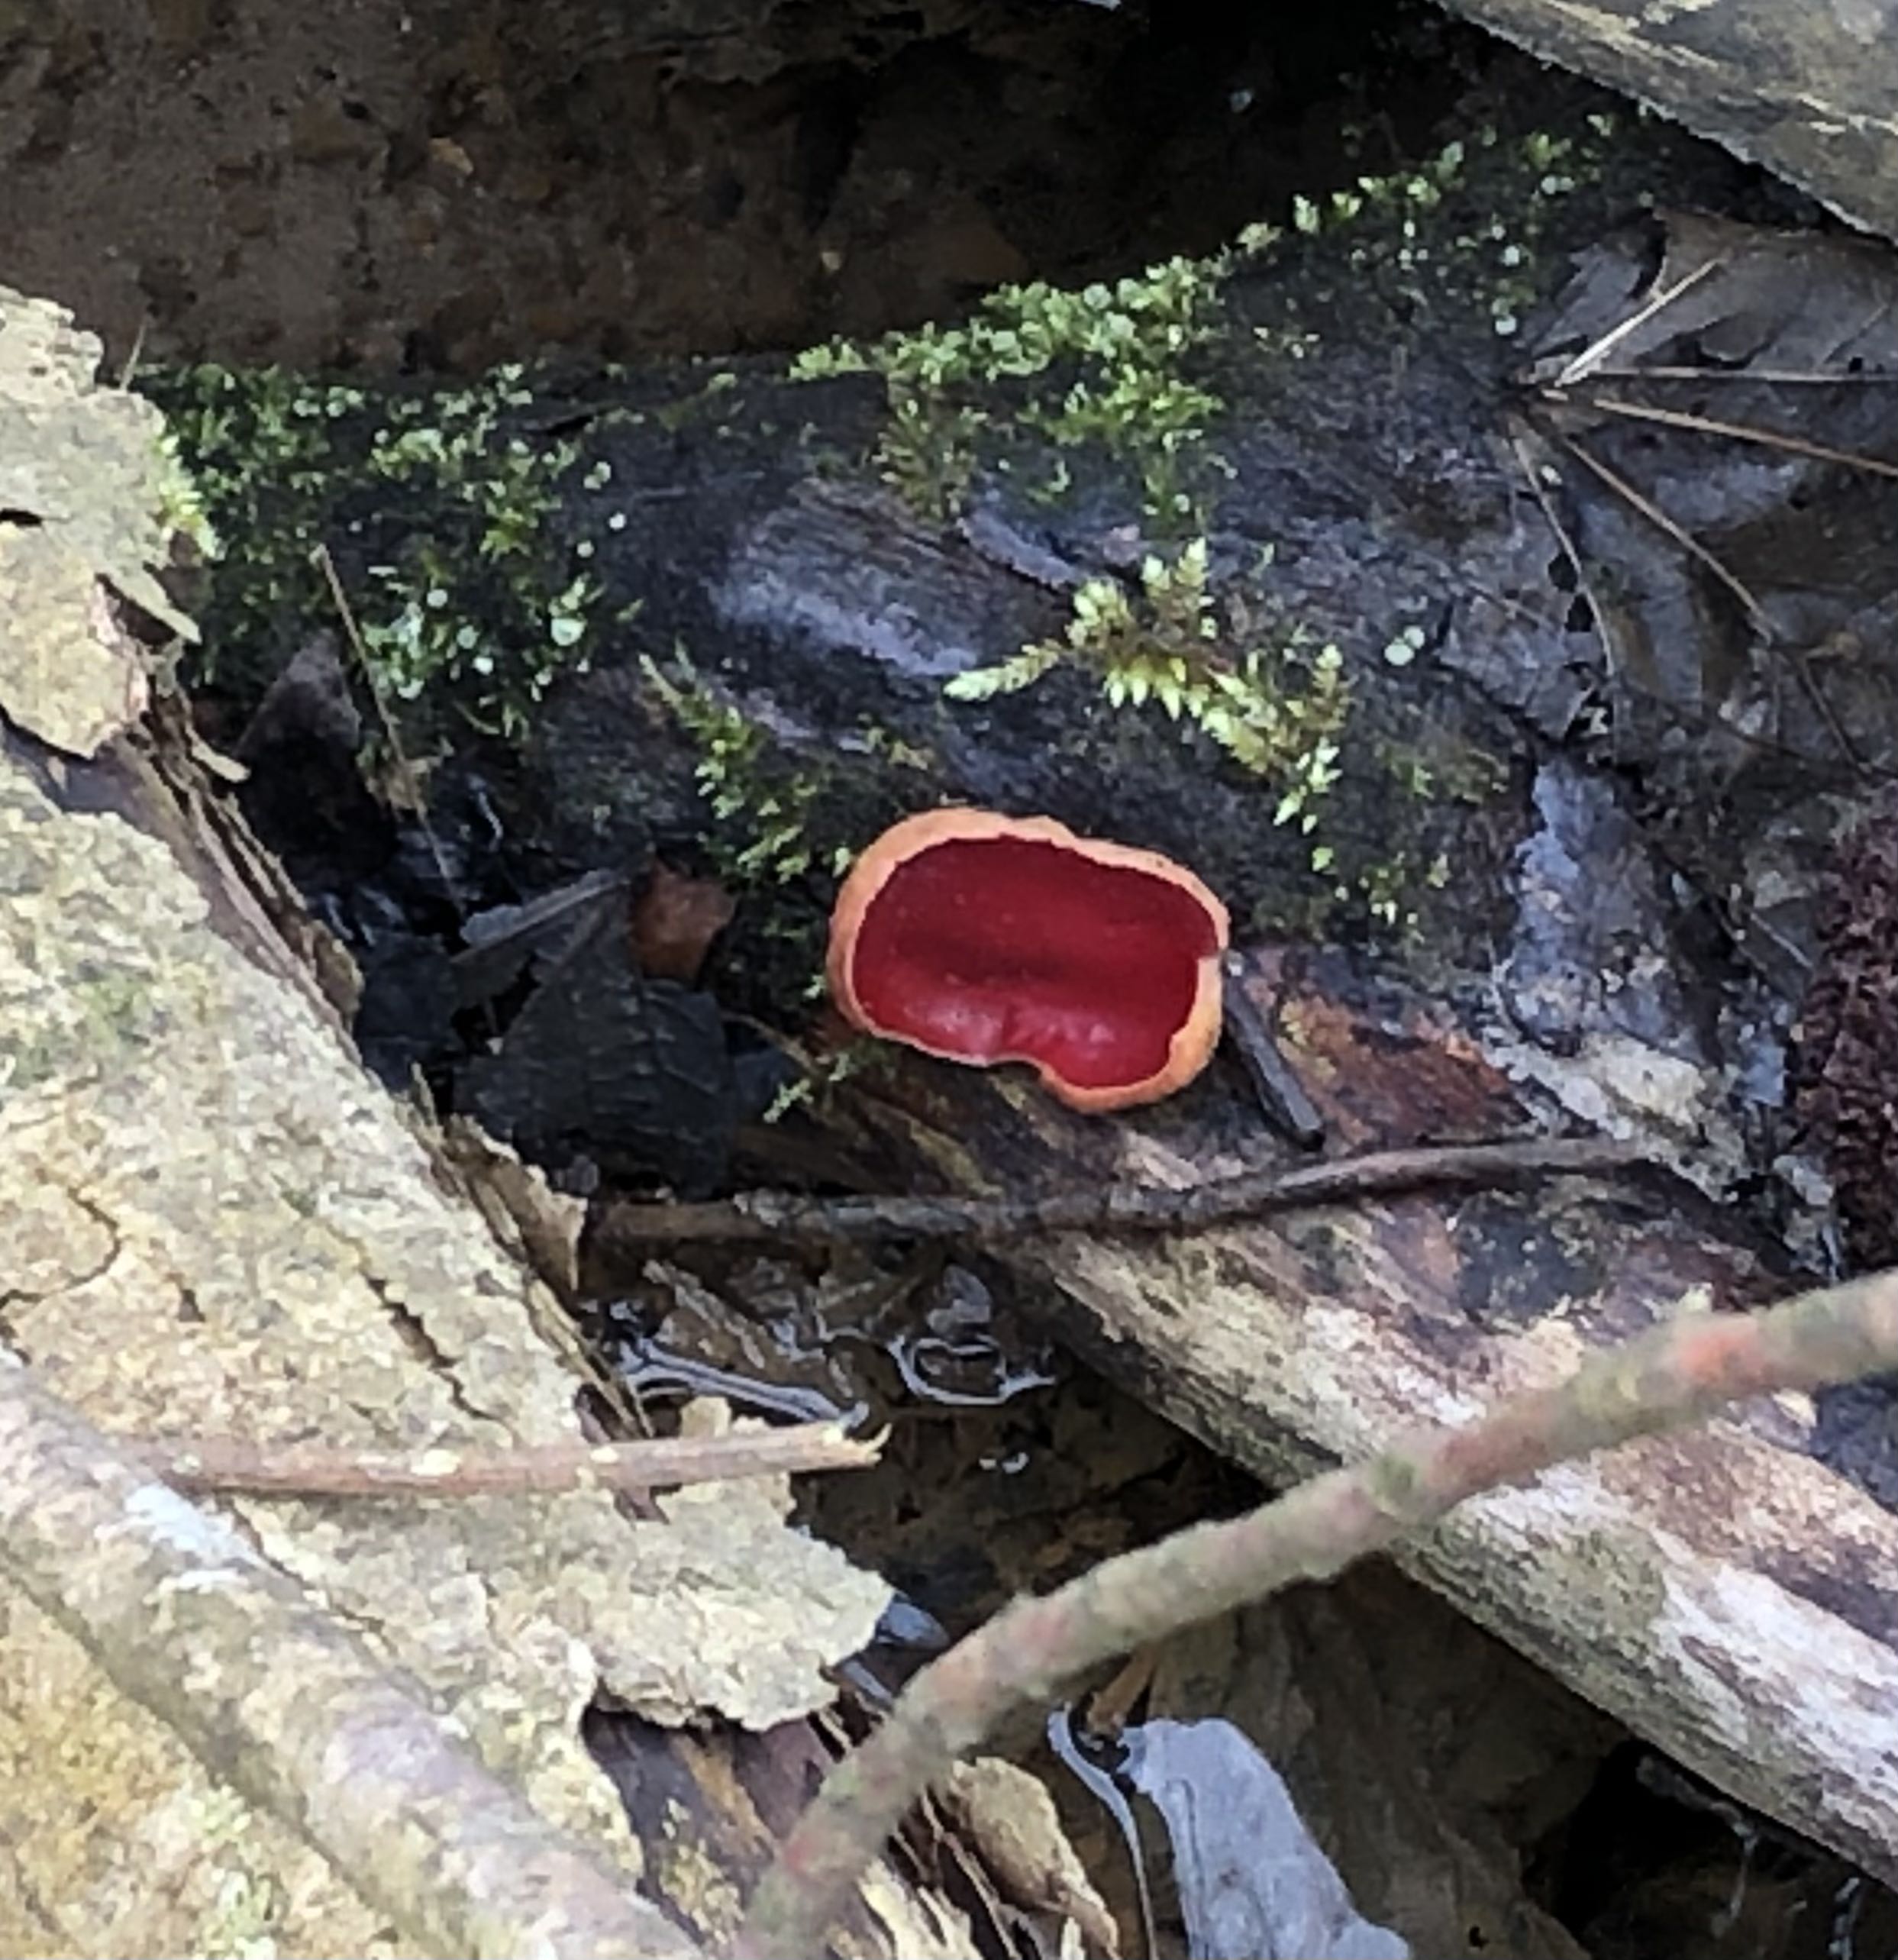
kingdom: Fungi
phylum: Ascomycota
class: Pezizomycetes
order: Pezizales
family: Sarcoscyphaceae
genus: Sarcoscypha
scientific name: Sarcoscypha austriaca
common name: krølhåret pragtbæger
